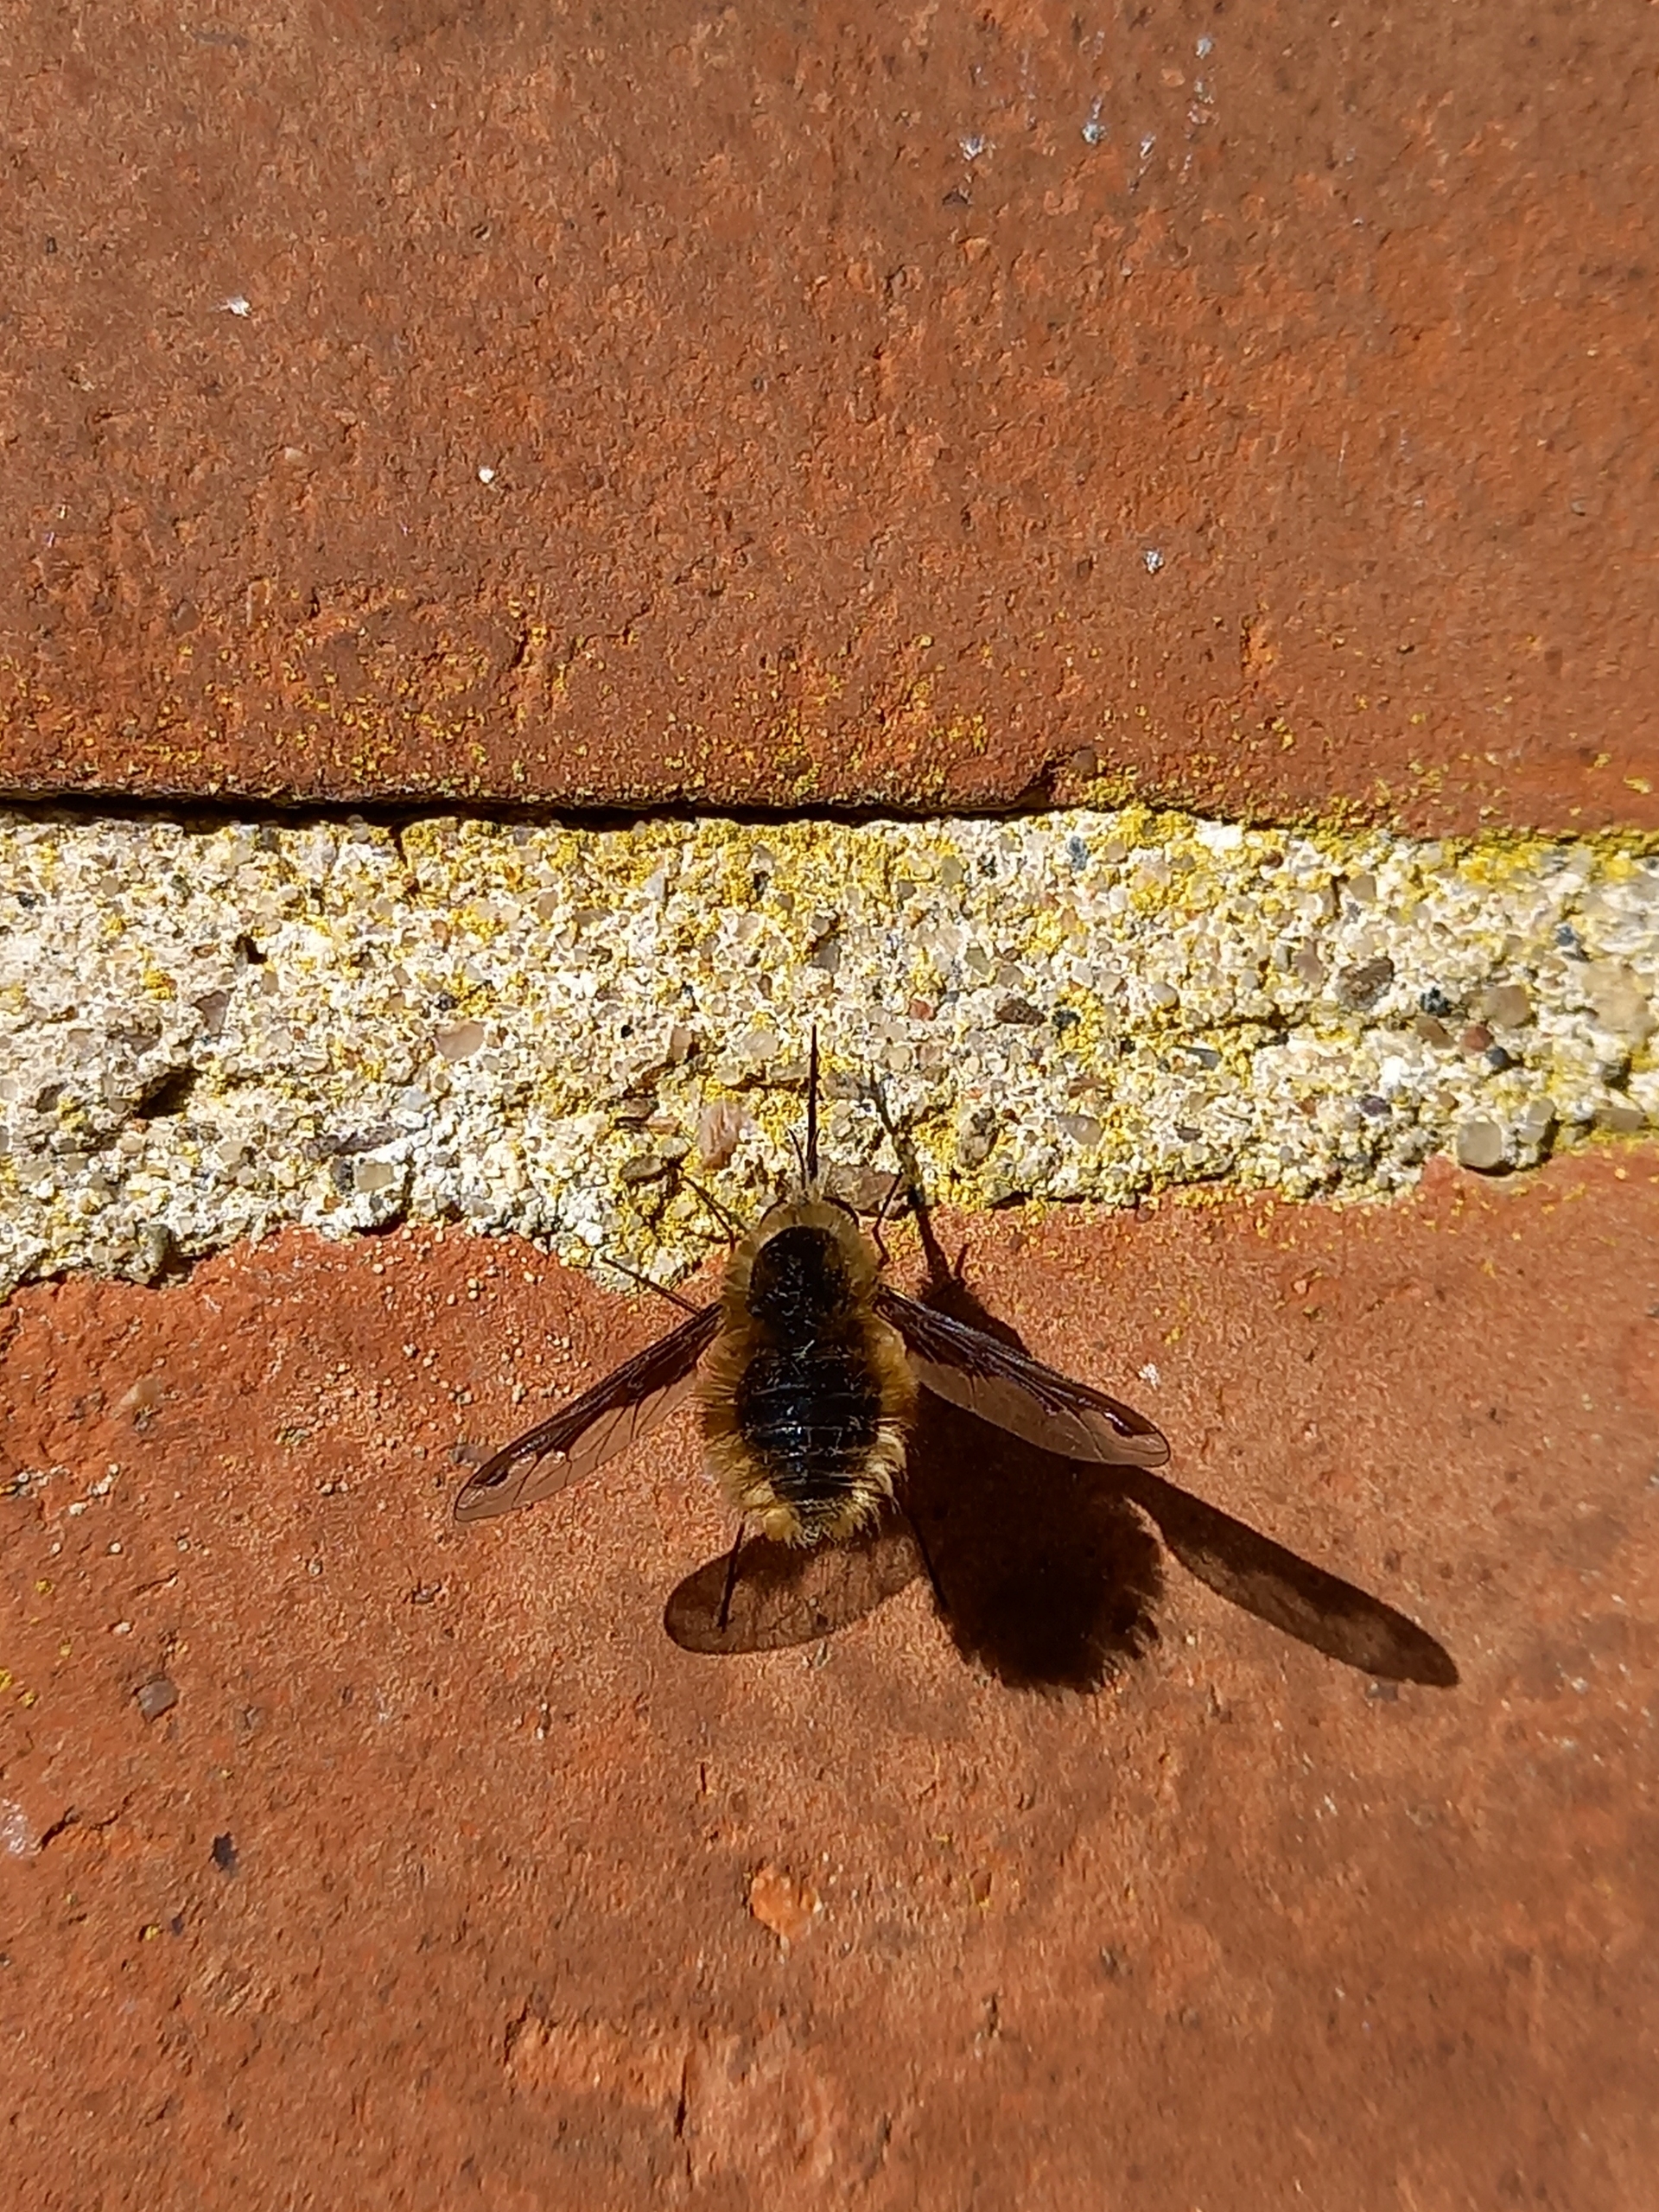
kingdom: Animalia
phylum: Arthropoda
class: Insecta
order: Diptera
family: Bombyliidae
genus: Bombylius
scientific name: Bombylius major
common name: Stor humleflue
